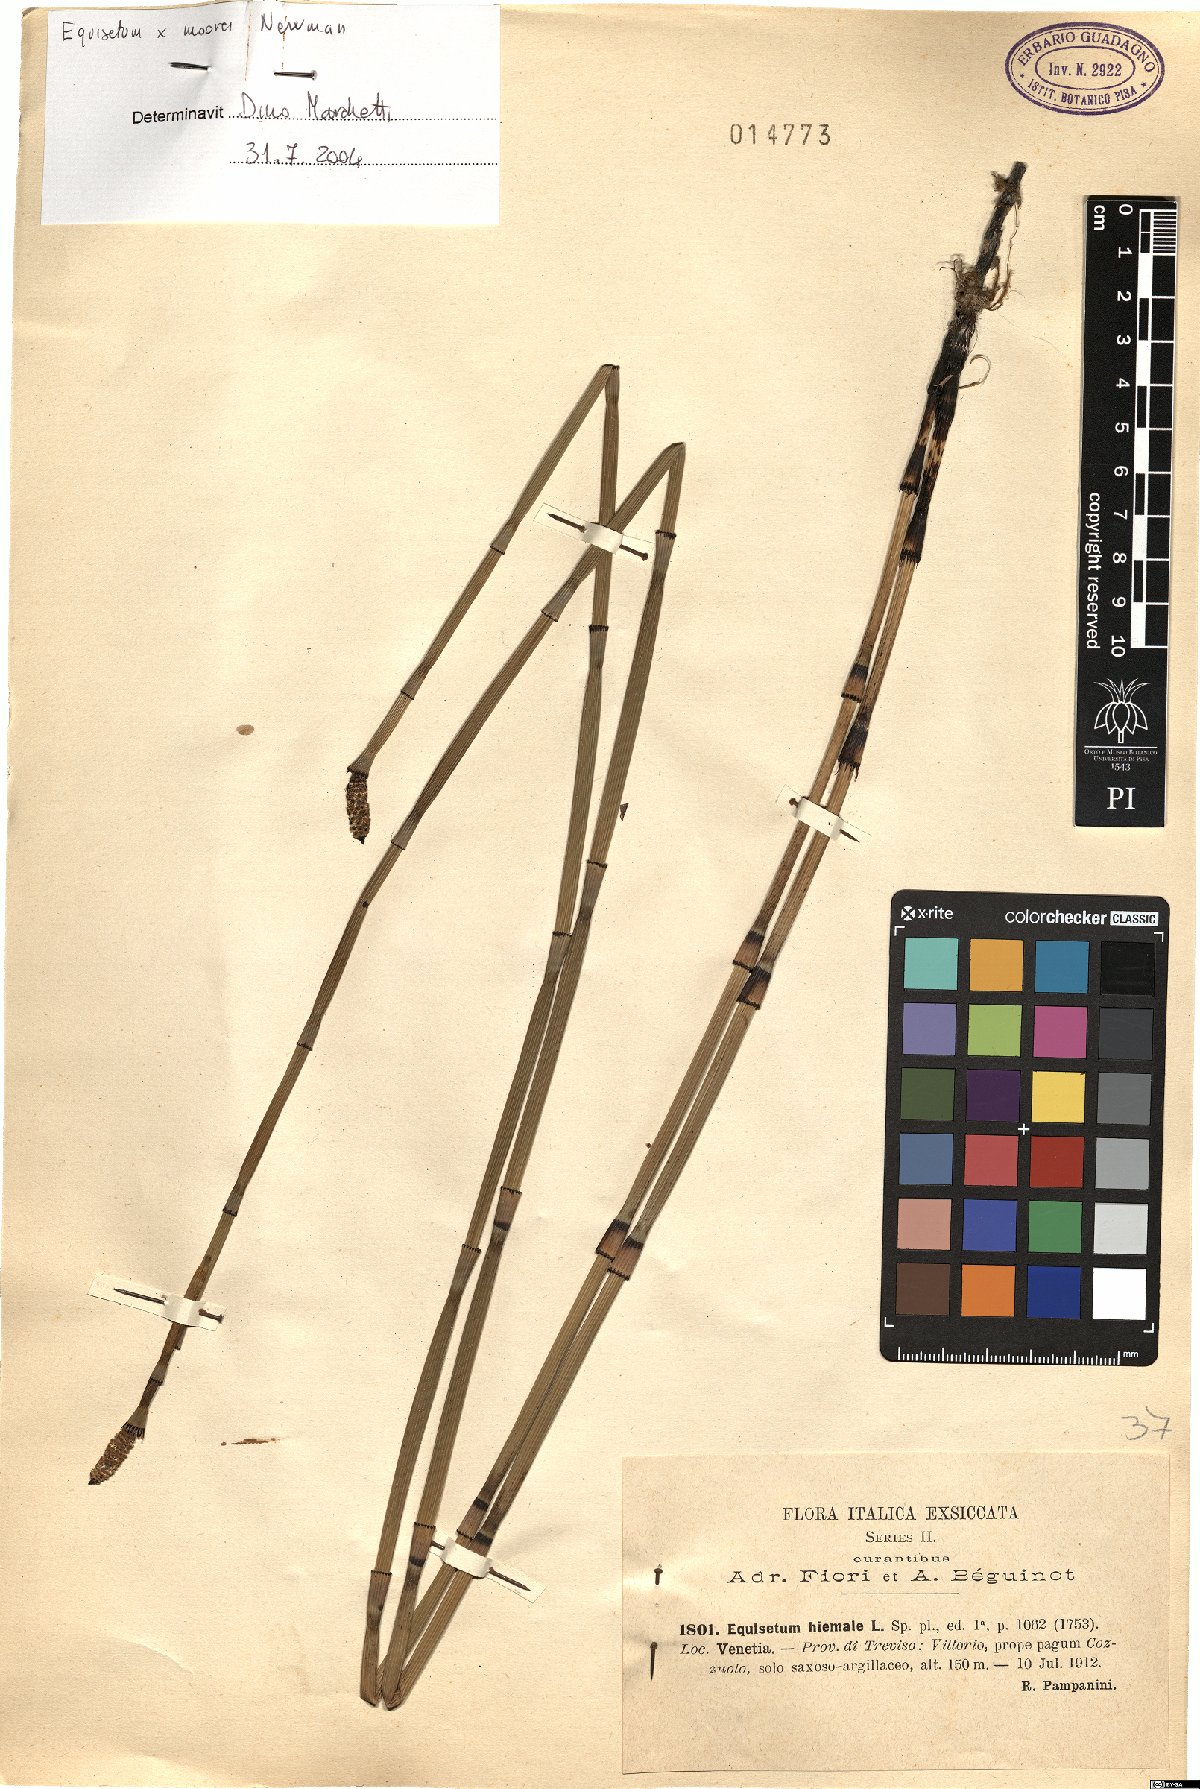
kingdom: Plantae
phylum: Tracheophyta
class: Polypodiopsida
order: Equisetales
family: Equisetaceae
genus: Equisetum
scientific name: Equisetum moorei
